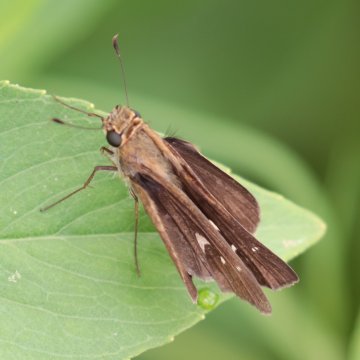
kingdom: Animalia
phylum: Arthropoda
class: Insecta
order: Lepidoptera
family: Hesperiidae
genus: Panoquina
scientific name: Panoquina ocola
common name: Ocola Skipper
